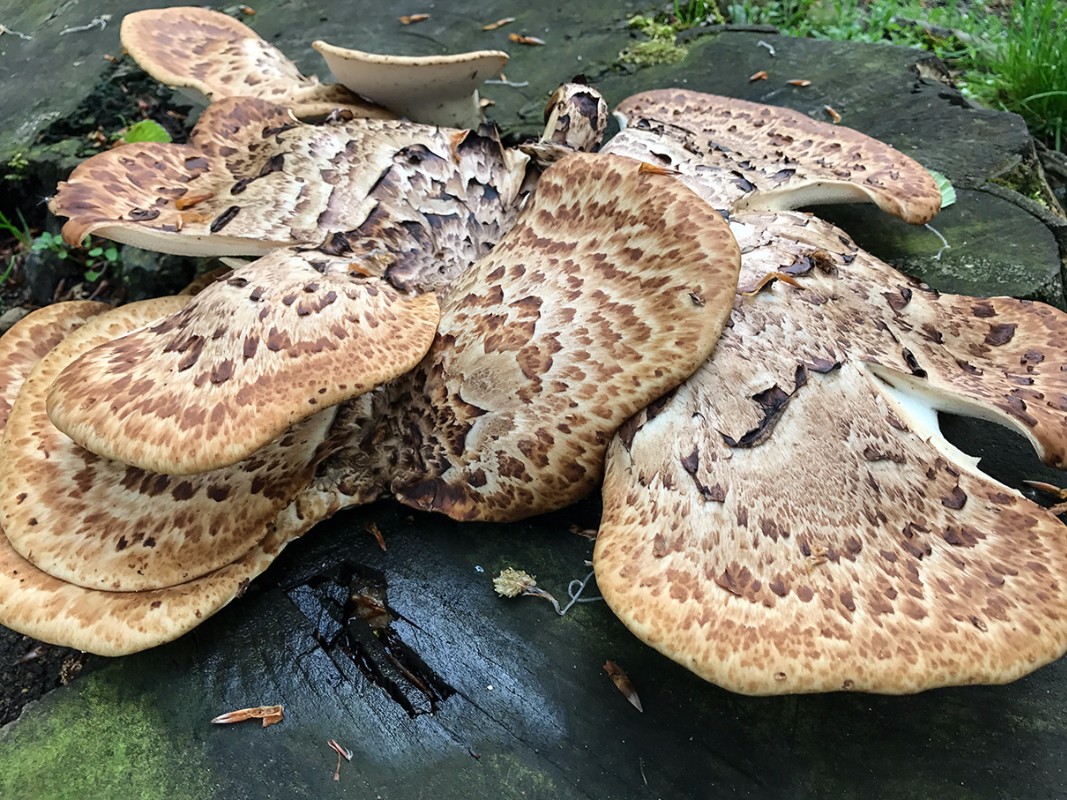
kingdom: Fungi
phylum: Basidiomycota
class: Agaricomycetes
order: Polyporales
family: Polyporaceae
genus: Cerioporus
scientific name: Cerioporus squamosus
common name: skællet stilkporesvamp
